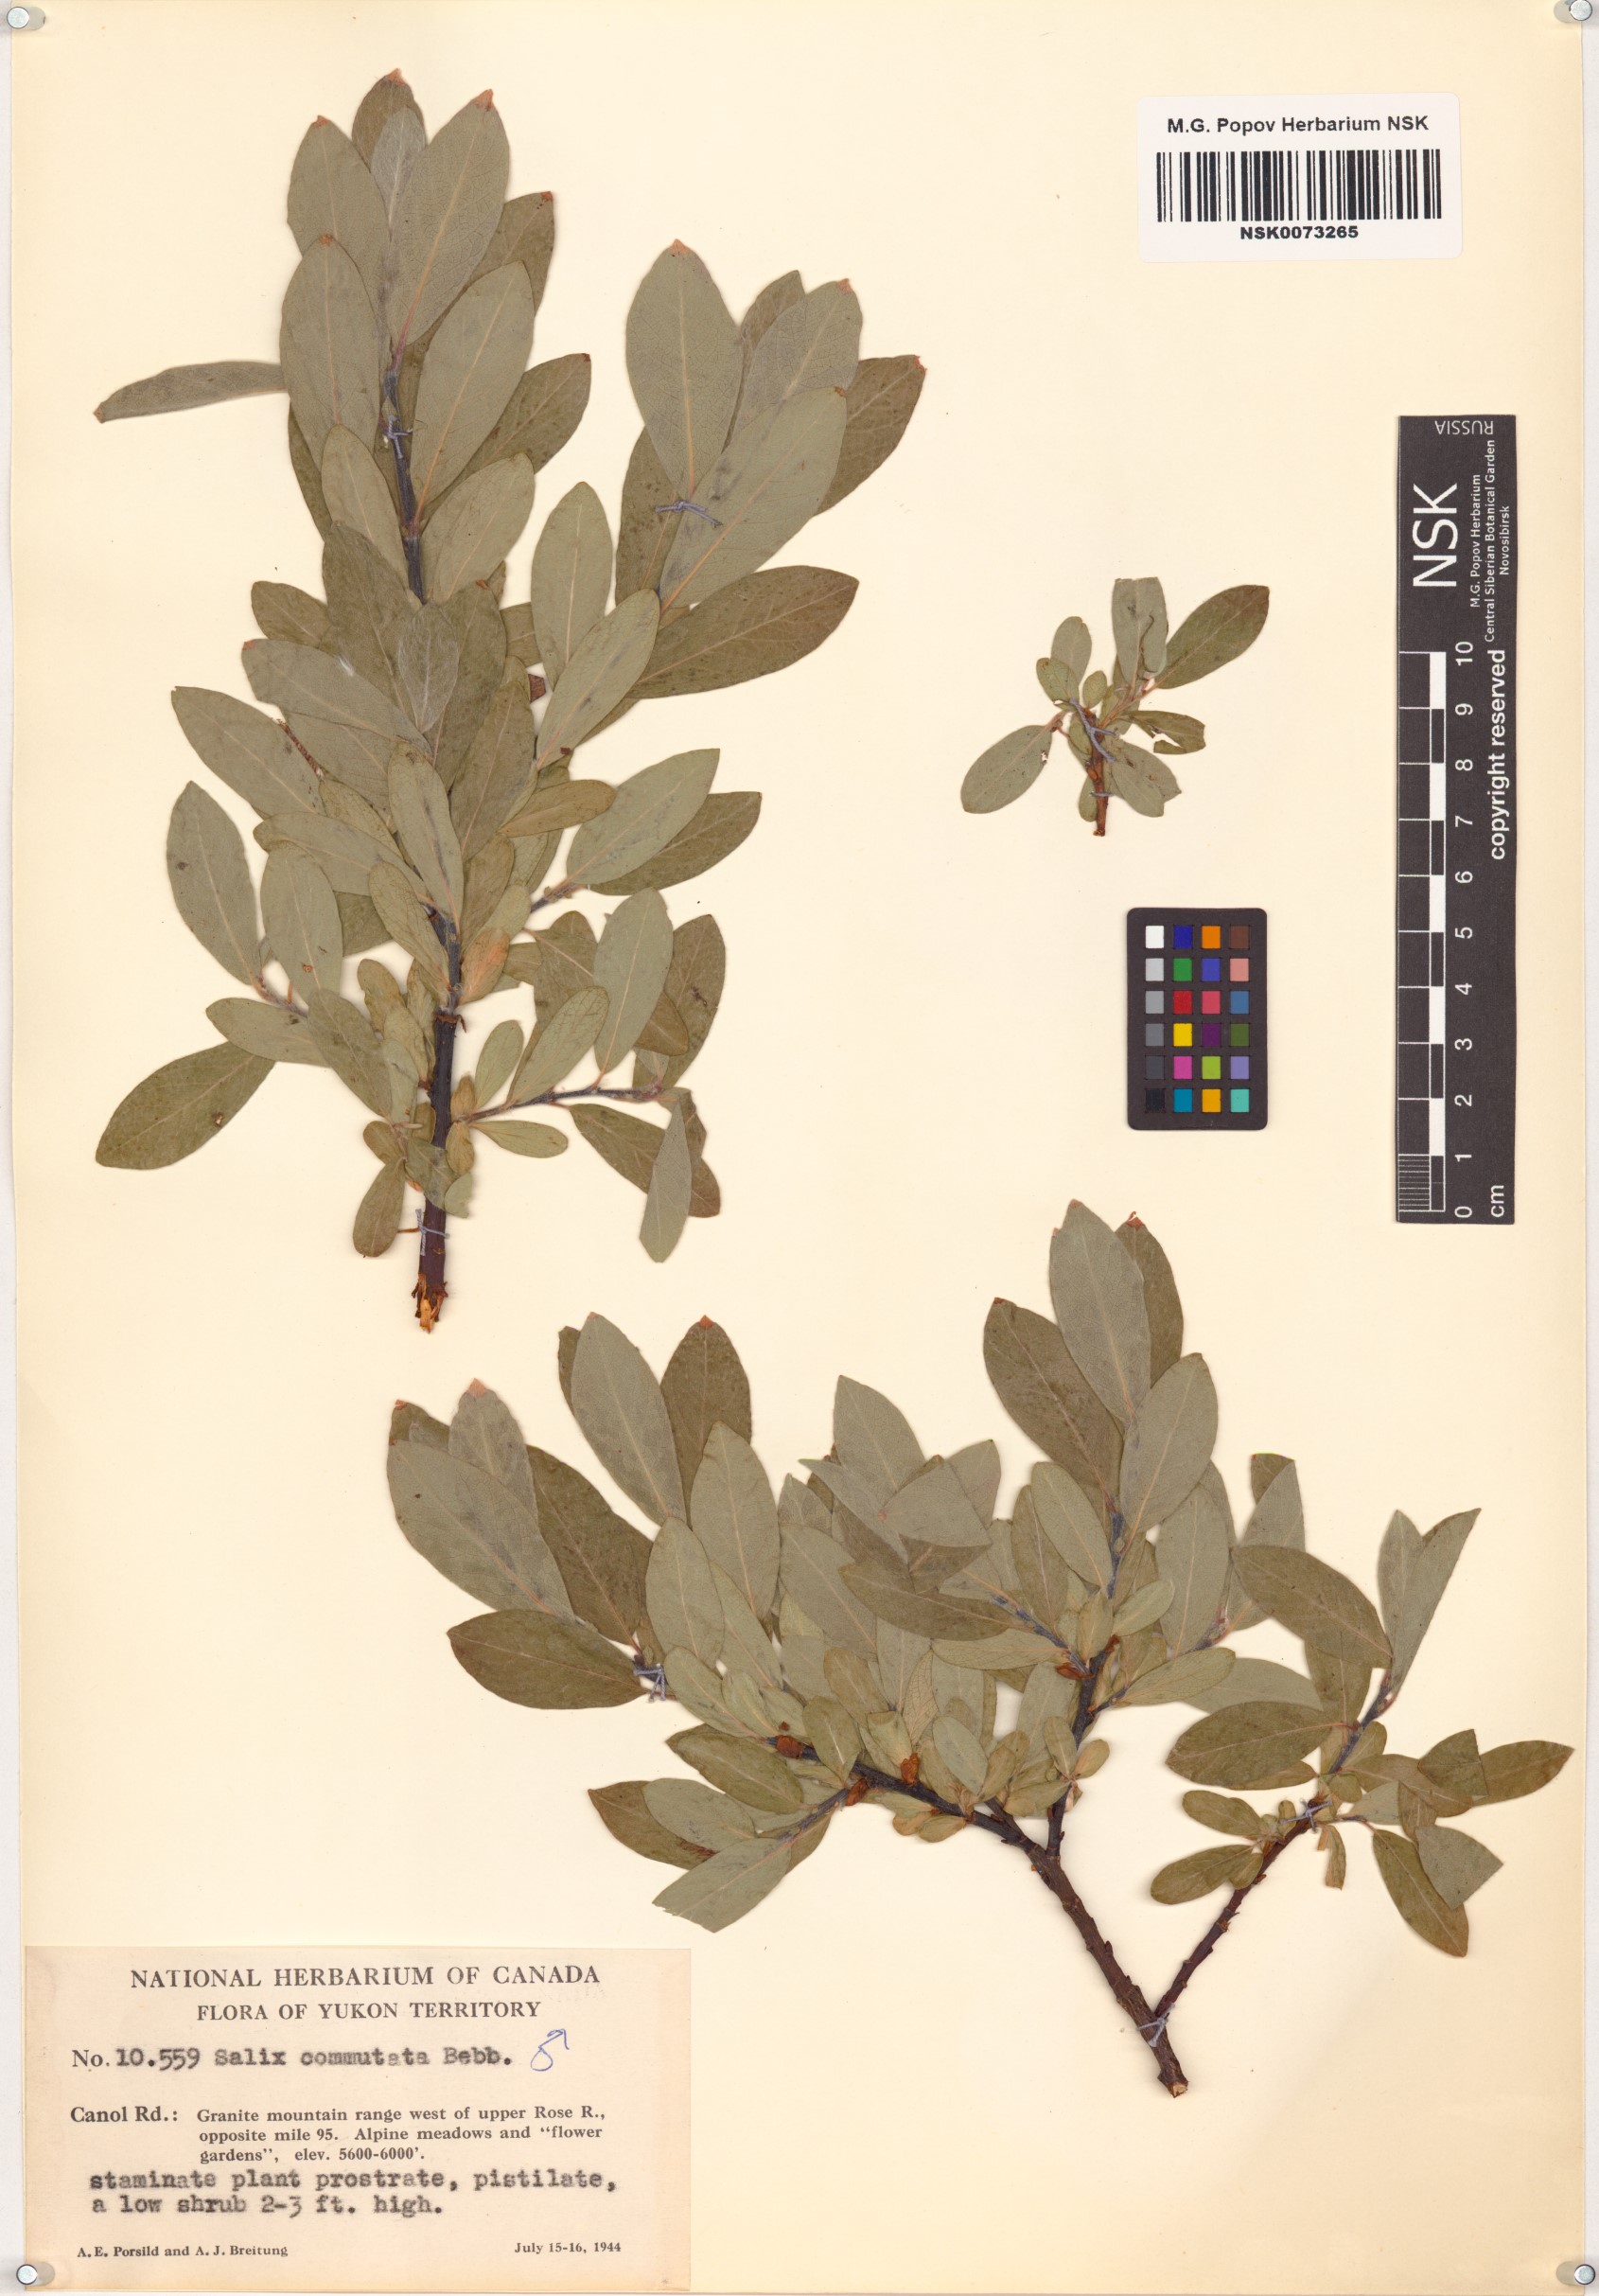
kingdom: Plantae
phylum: Tracheophyta
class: Magnoliopsida
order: Malpighiales
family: Salicaceae
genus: Salix
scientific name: Salix commutata
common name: Under-green willow
